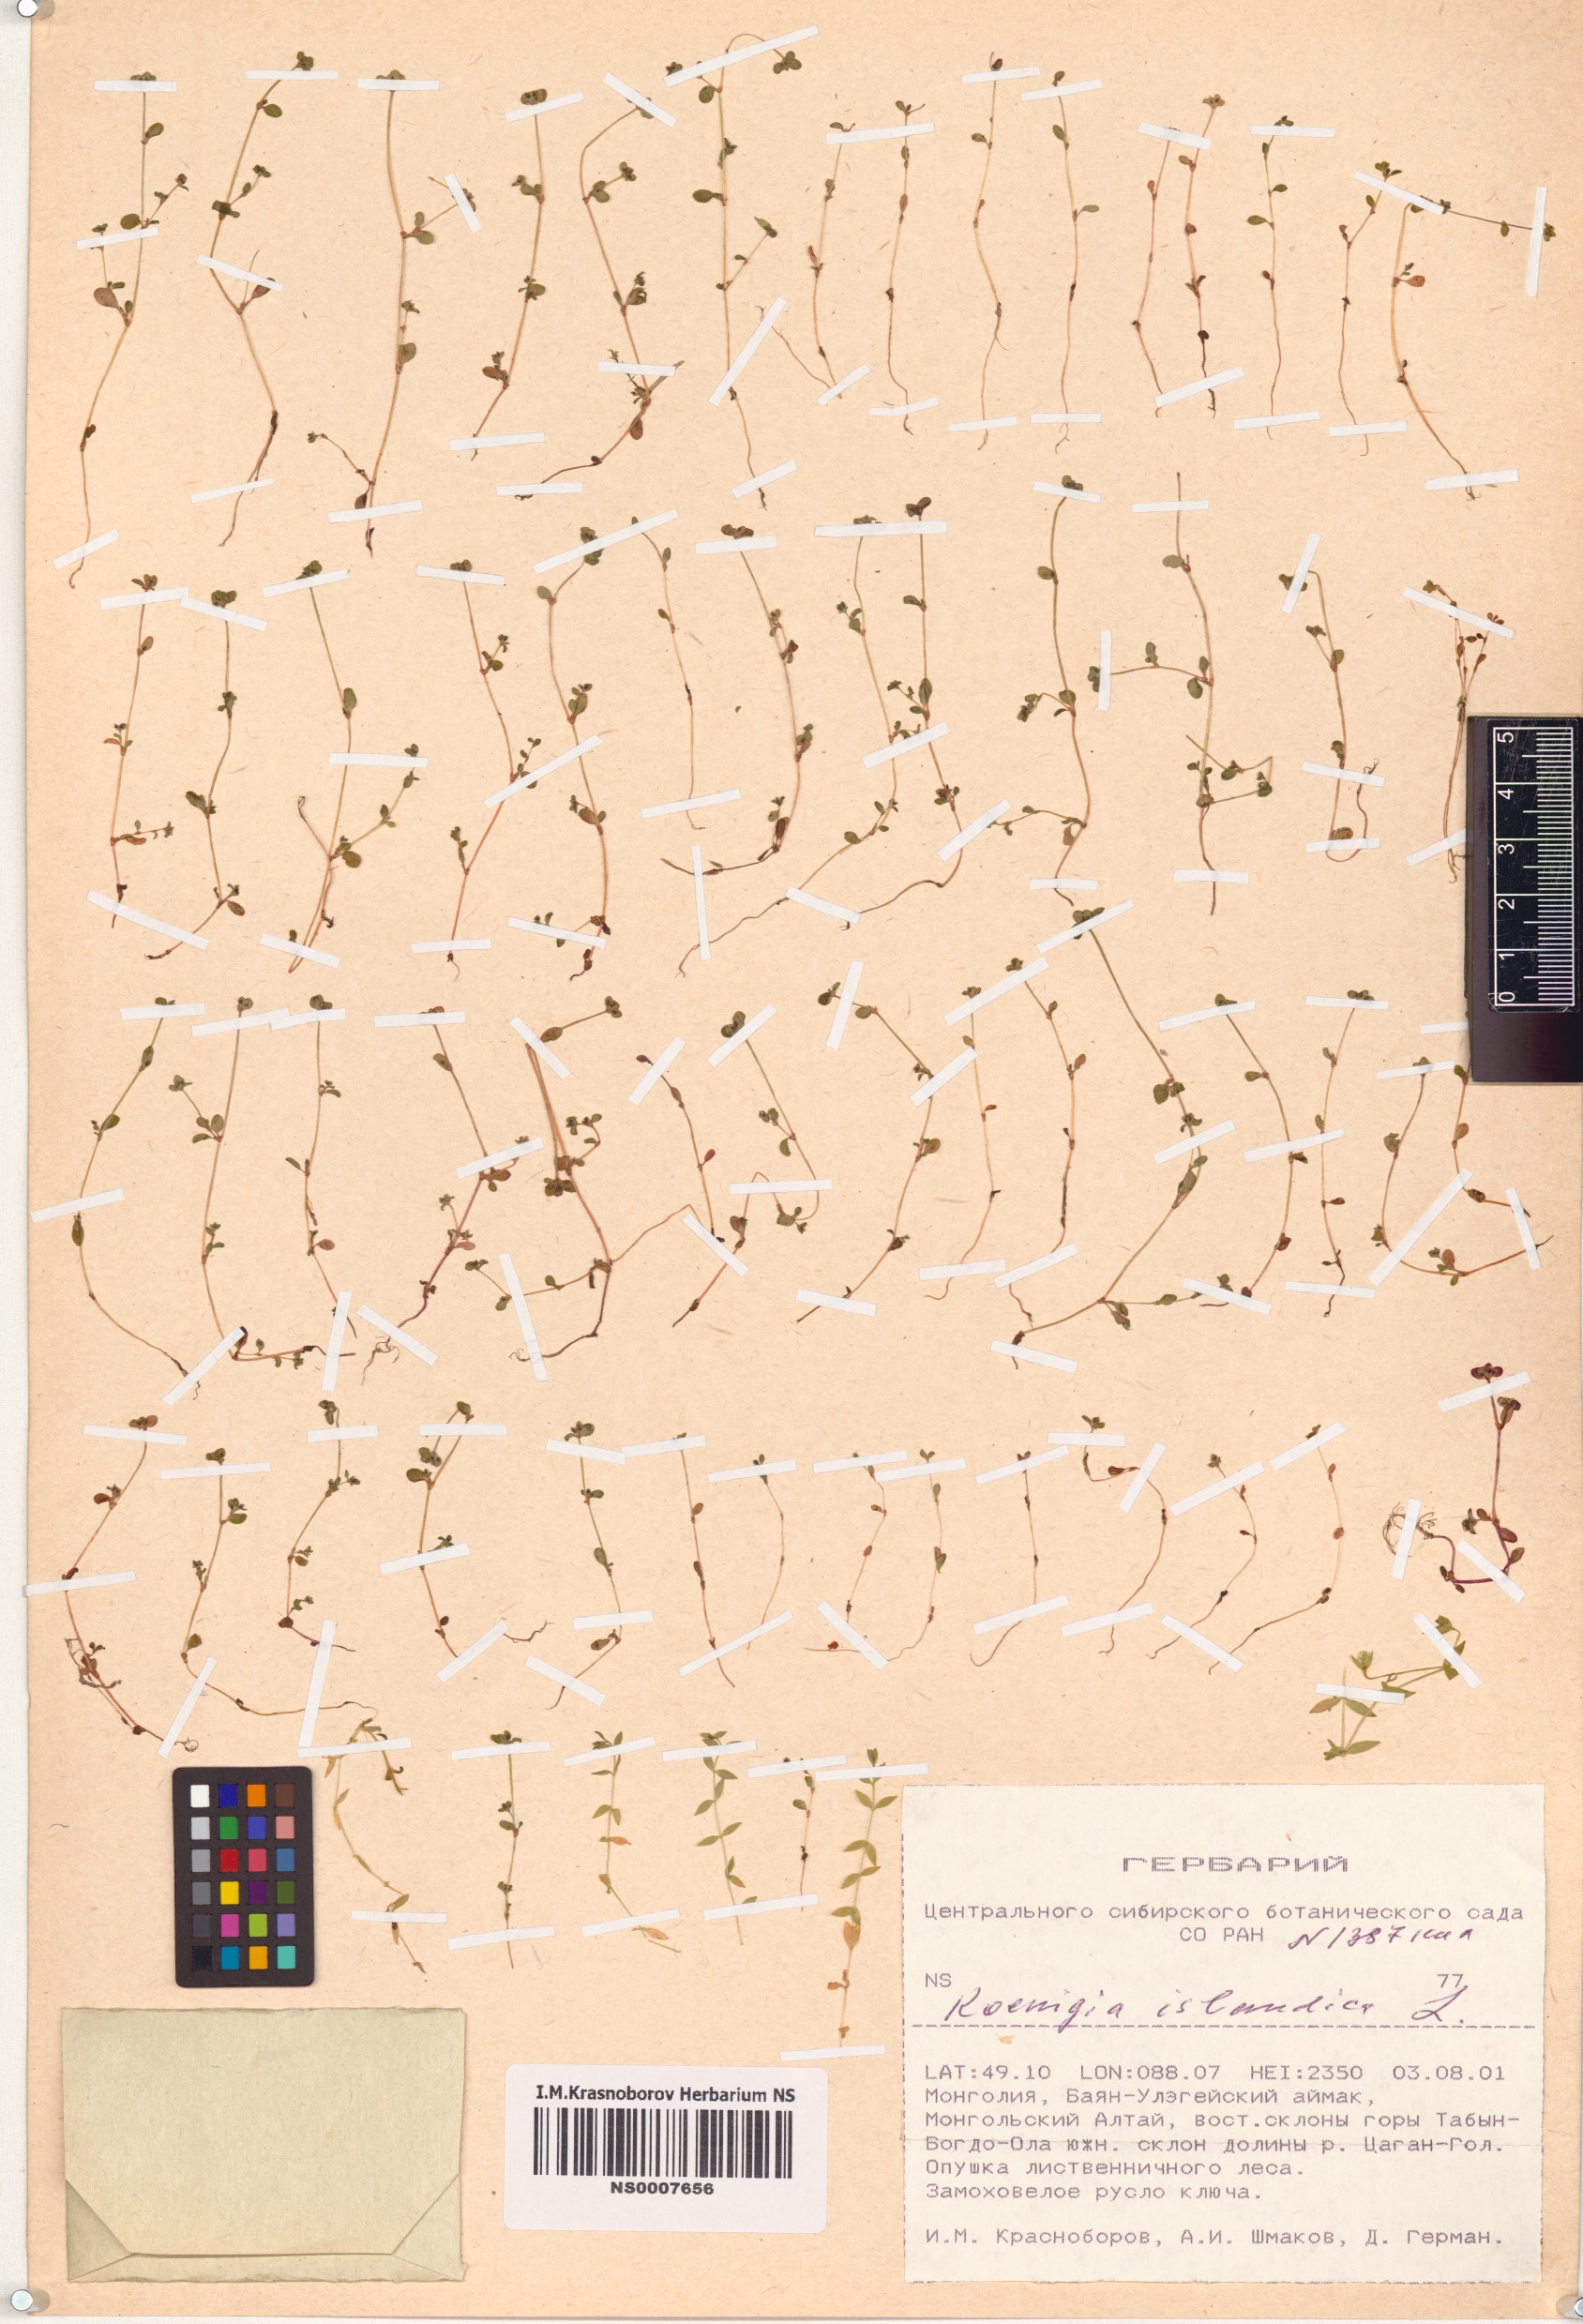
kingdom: Plantae
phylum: Tracheophyta
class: Magnoliopsida
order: Caryophyllales
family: Polygonaceae
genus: Koenigia
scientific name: Koenigia islandica
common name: Iceland-purslane
